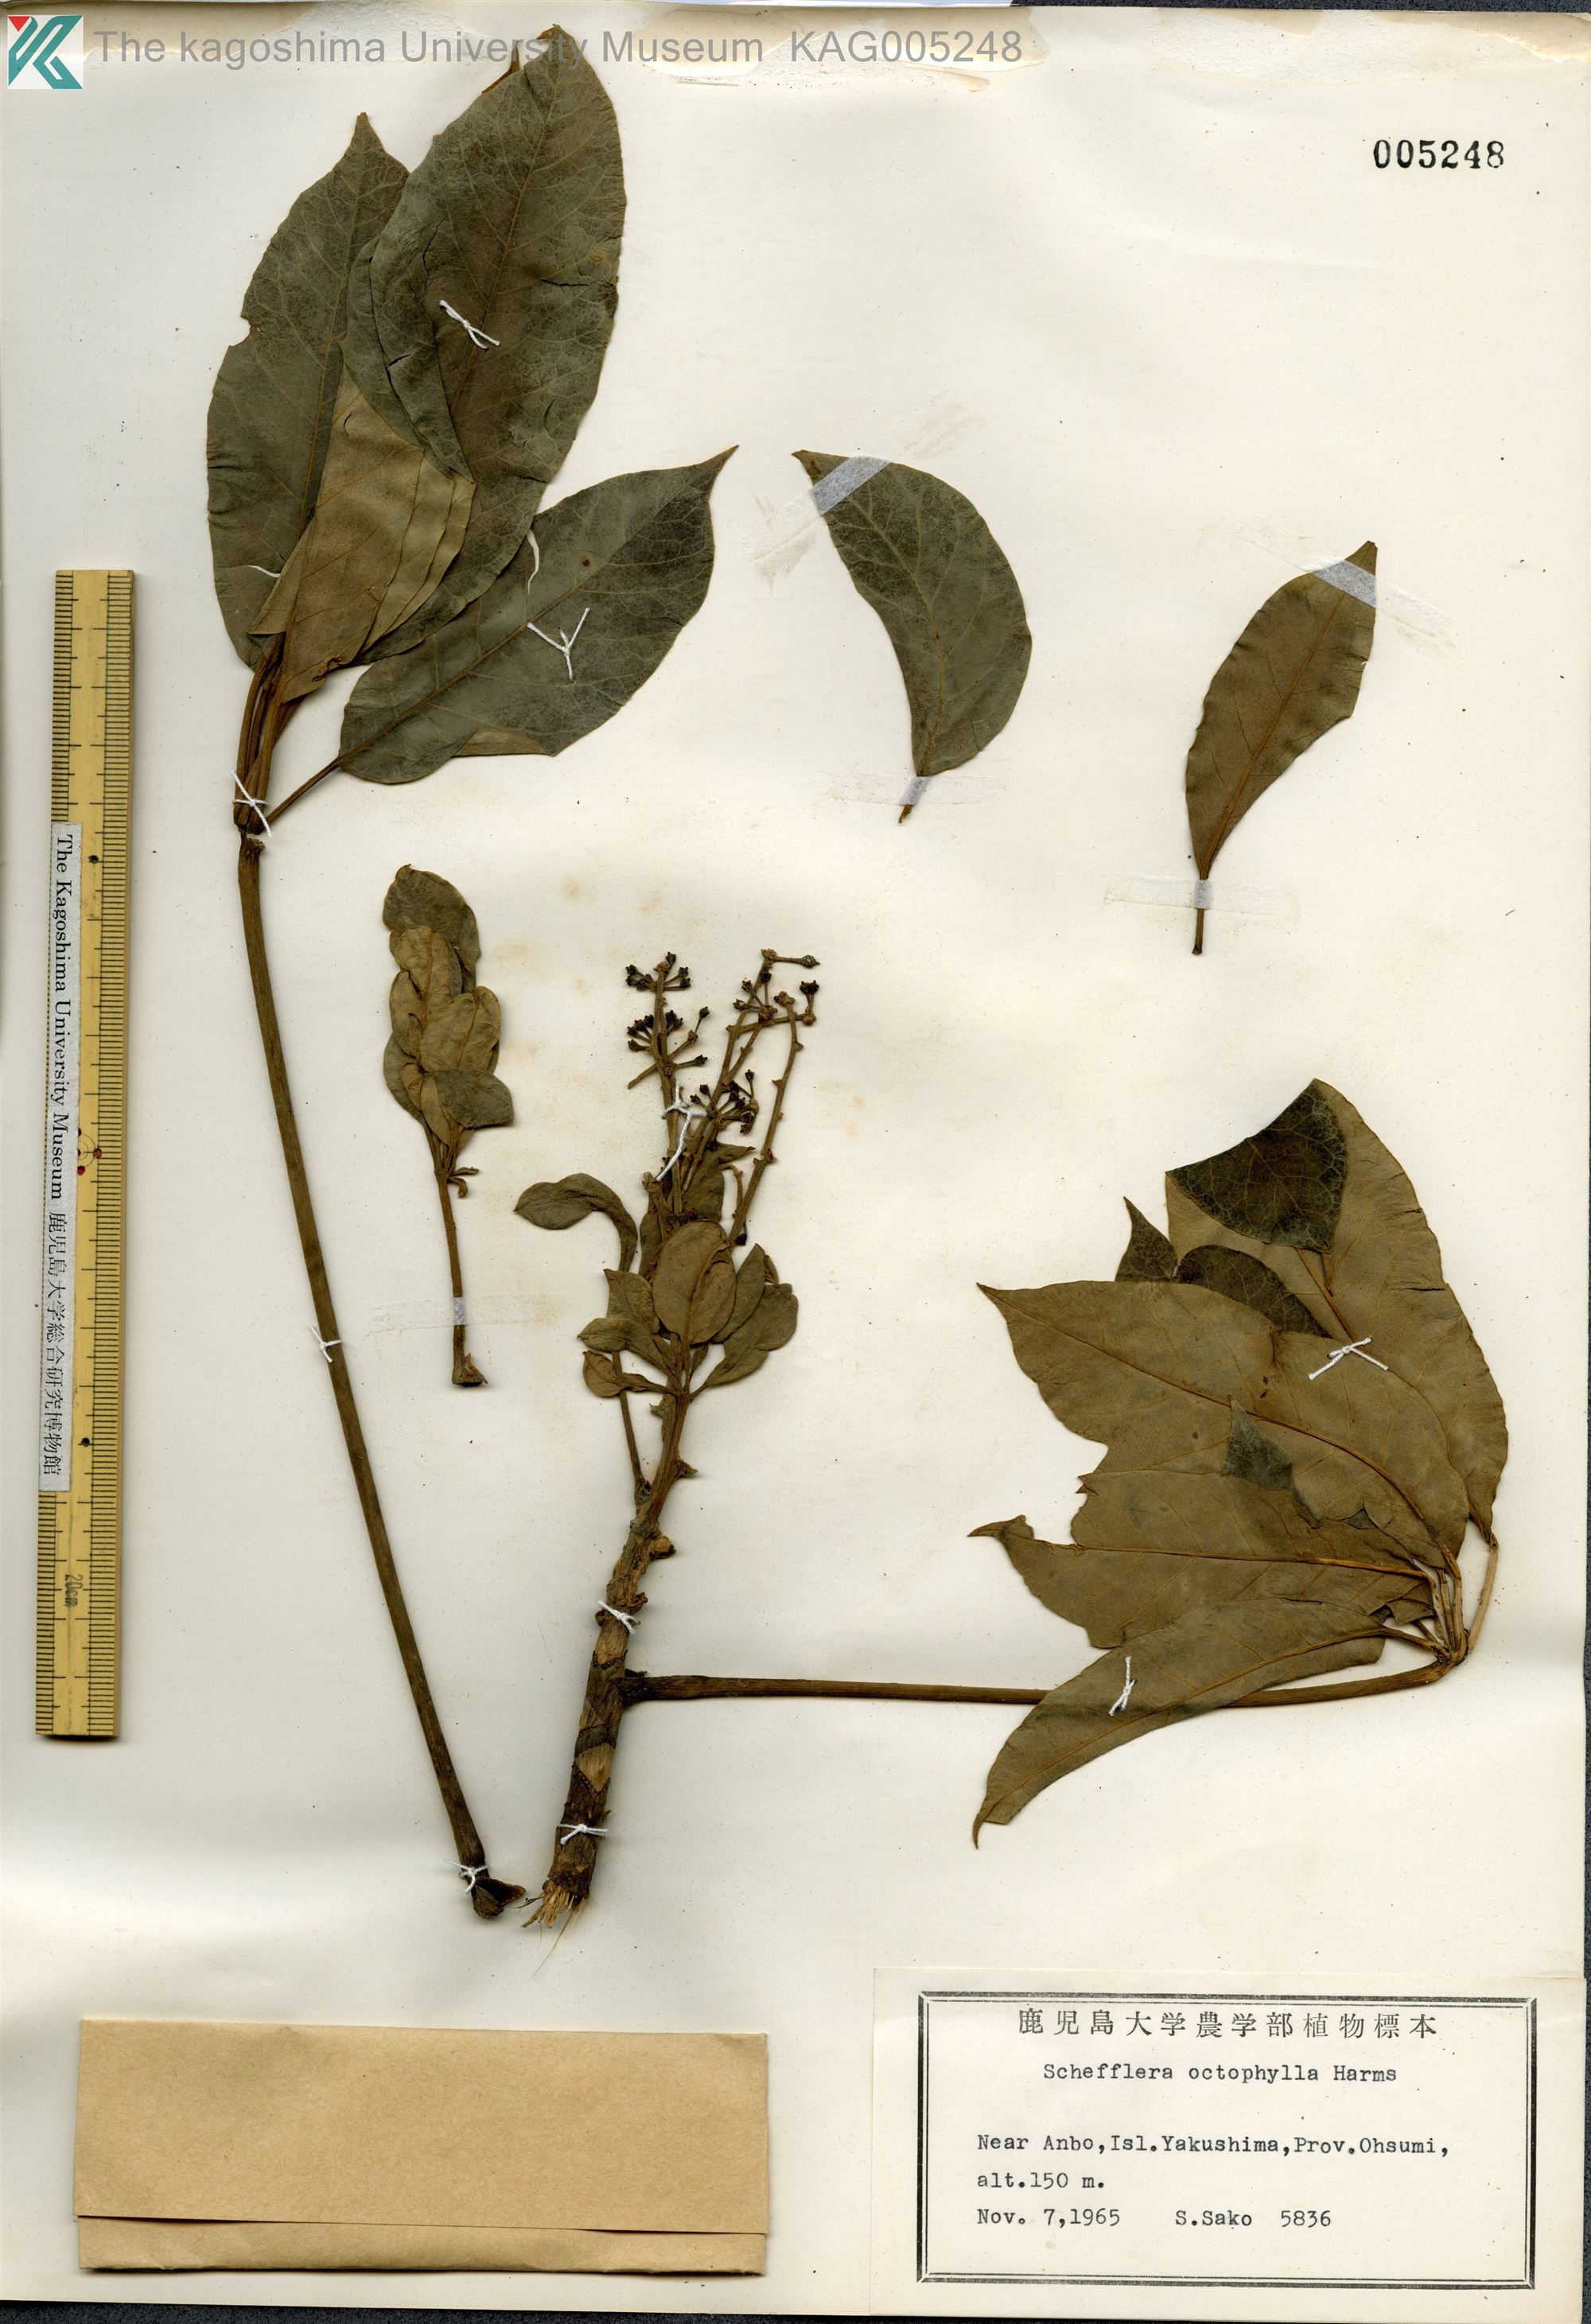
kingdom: Plantae
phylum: Tracheophyta
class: Magnoliopsida
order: Apiales
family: Araliaceae
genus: Heptapleurum
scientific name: Heptapleurum heptaphyllum
